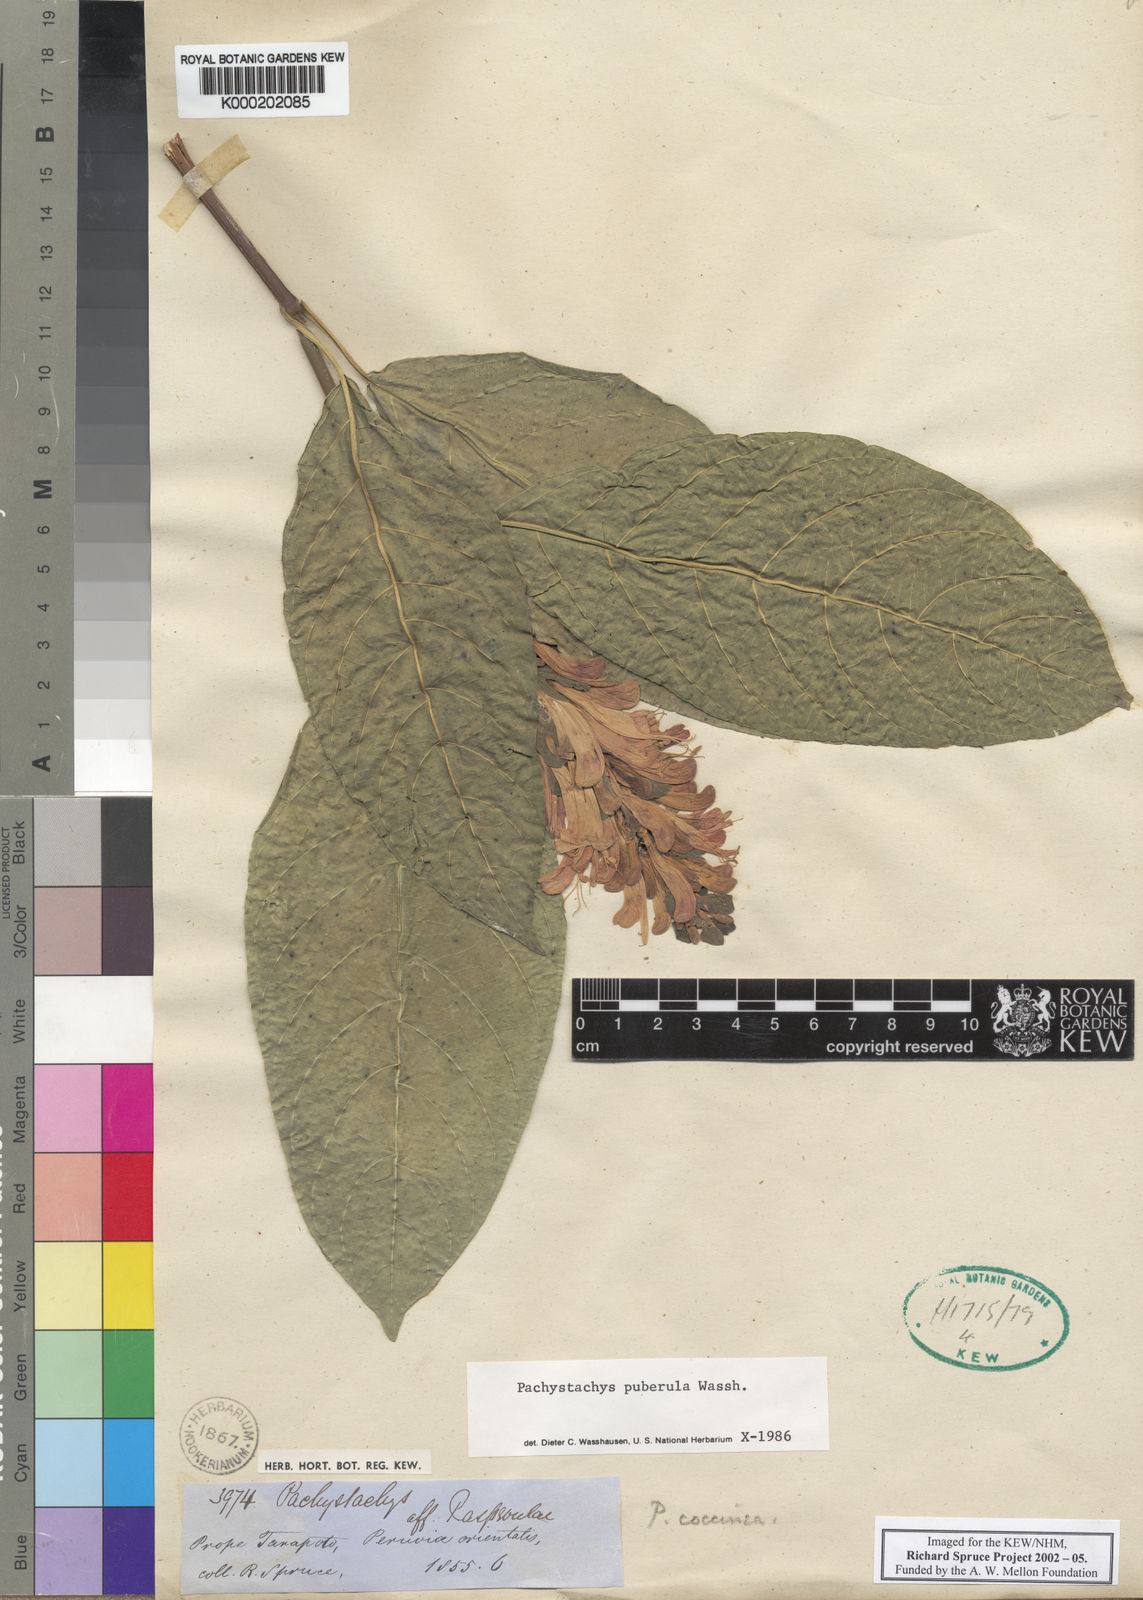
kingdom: Plantae
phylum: Tracheophyta
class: Magnoliopsida
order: Lamiales
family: Acanthaceae
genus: Pachystachys
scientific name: Pachystachys puberula
